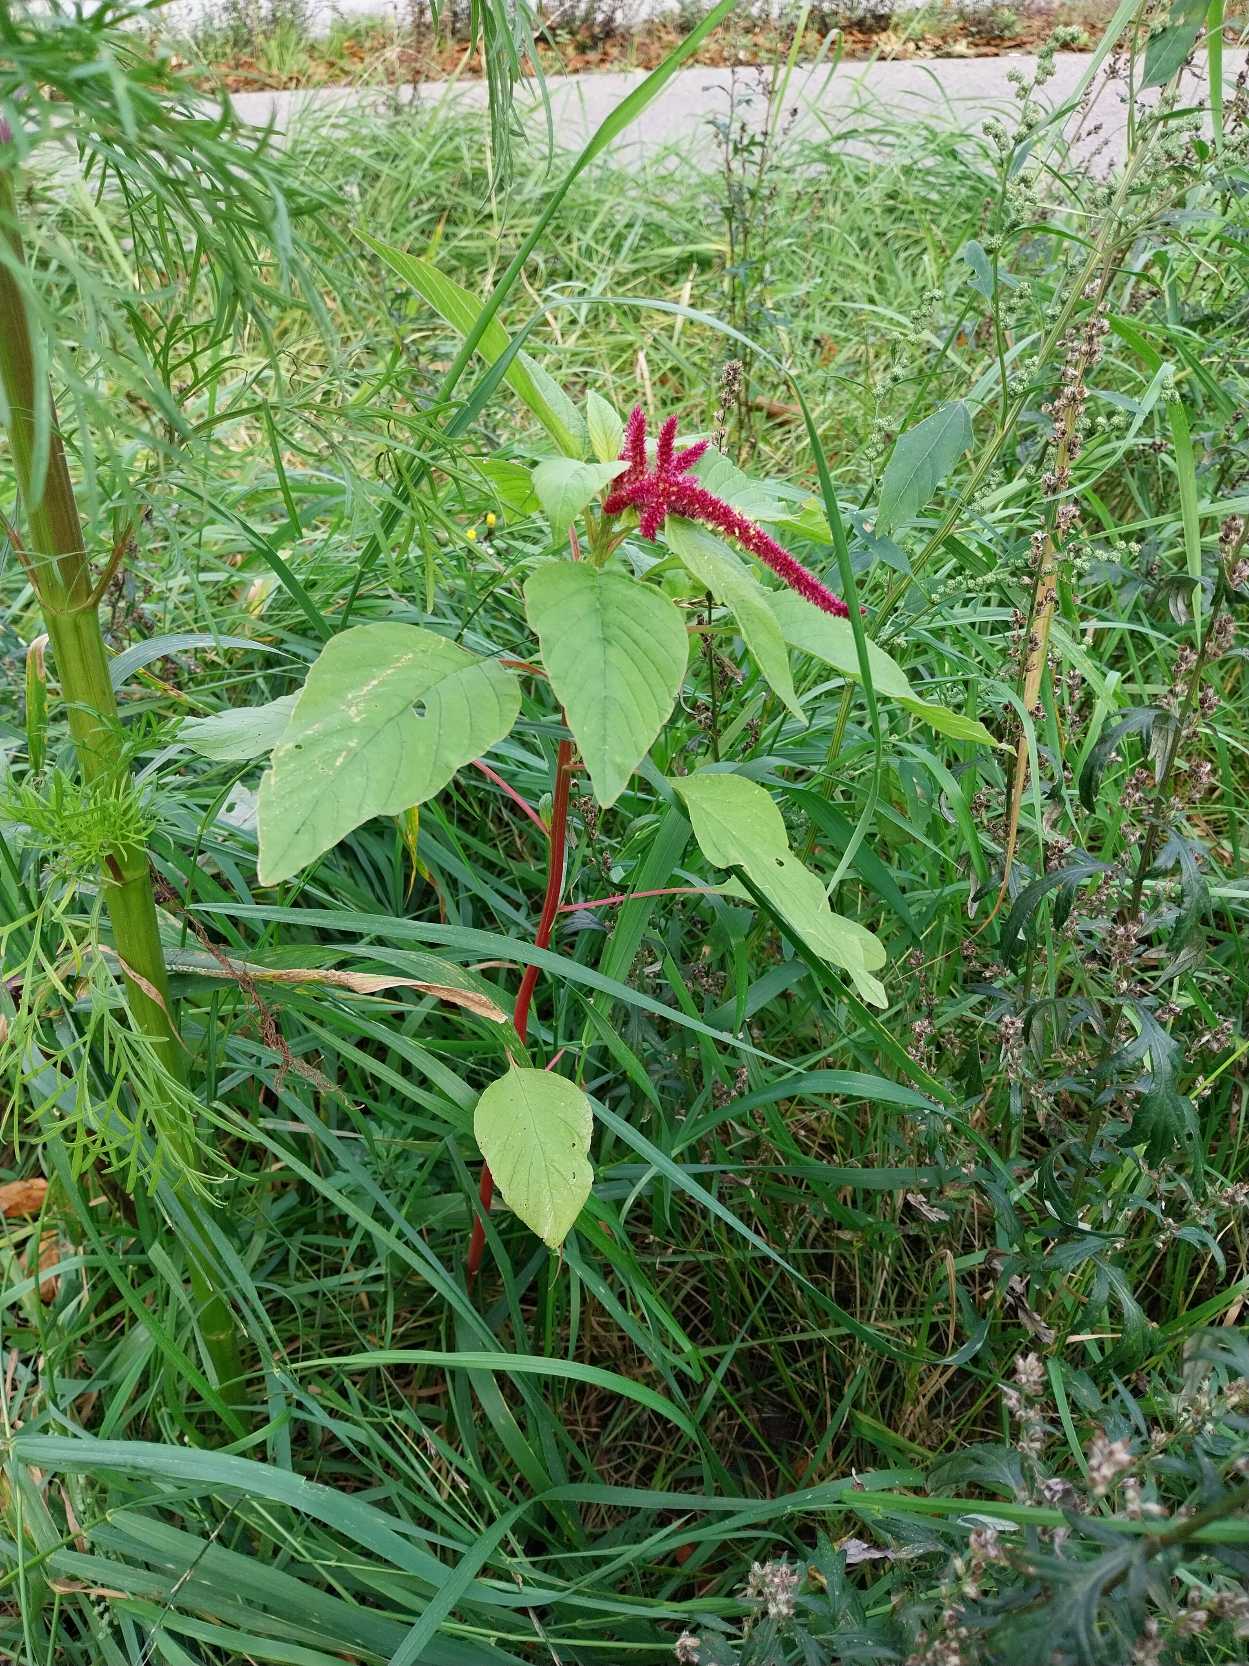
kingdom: Plantae
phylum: Tracheophyta
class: Magnoliopsida
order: Caryophyllales
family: Amaranthaceae
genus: Amaranthus
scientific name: Amaranthus caudatus
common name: Rævehale-amarant
